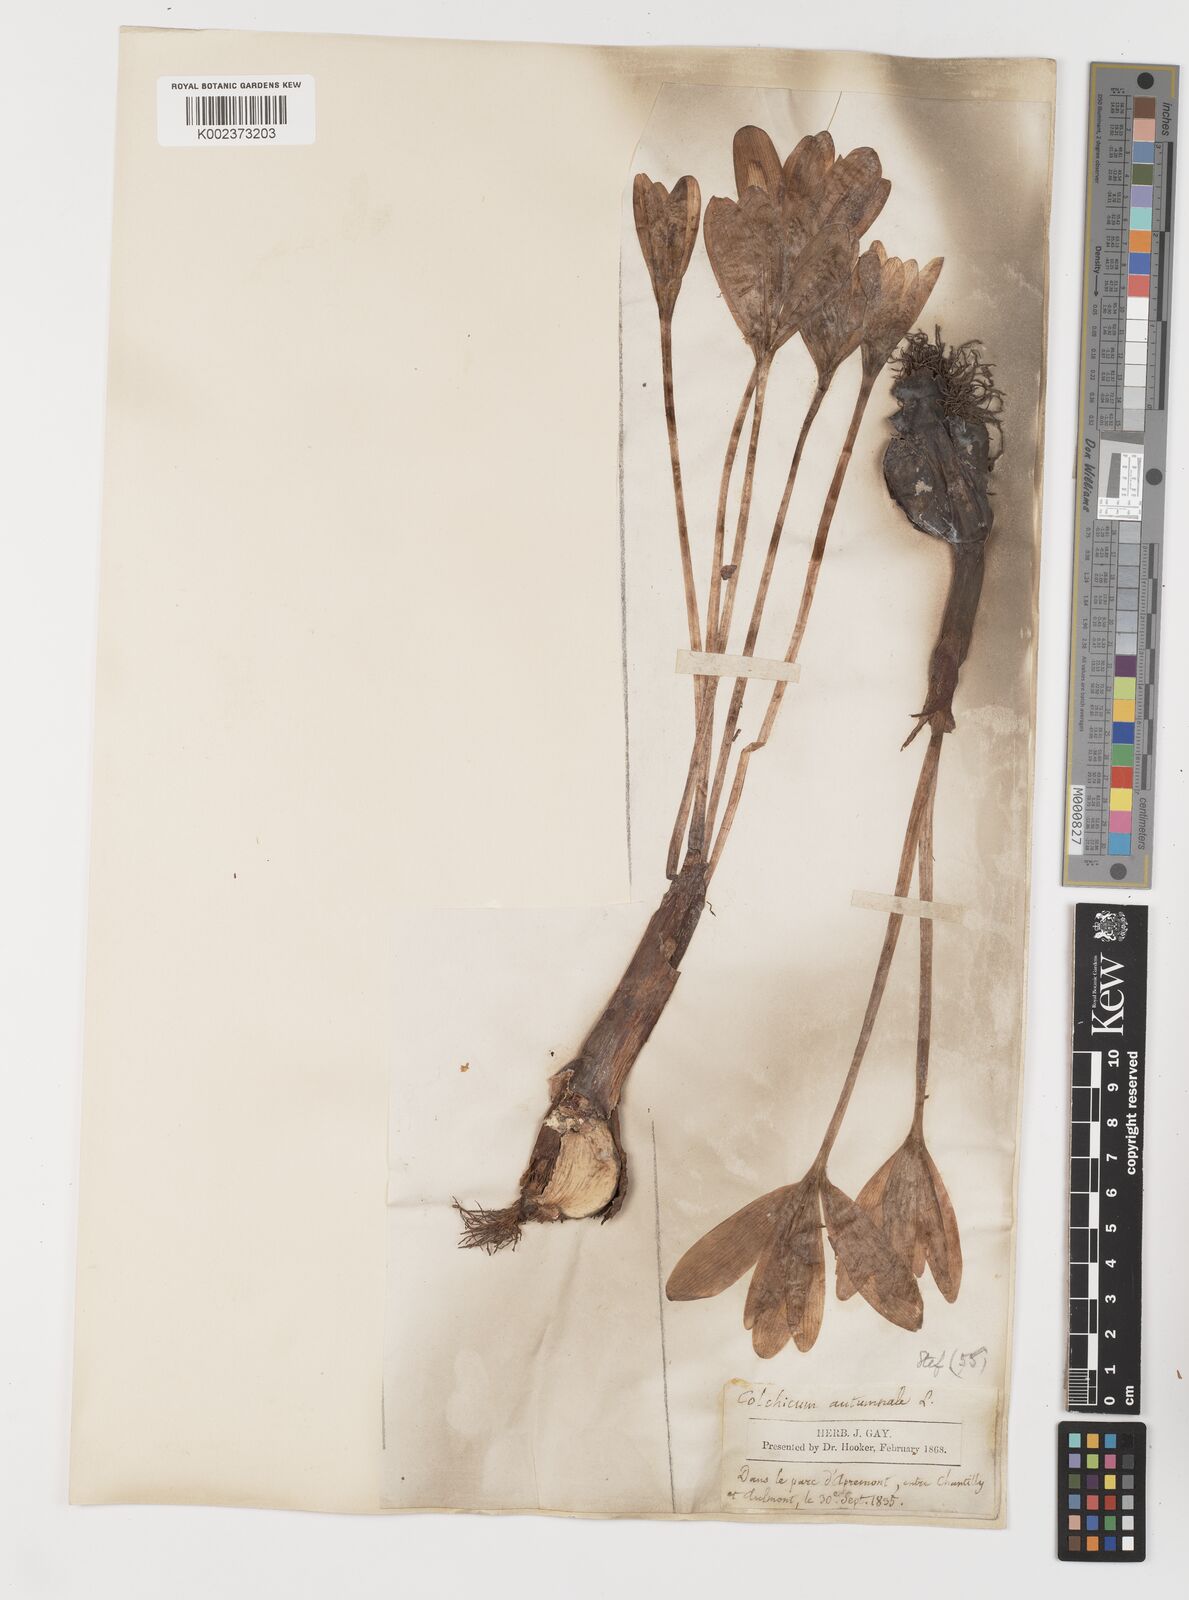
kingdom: Plantae
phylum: Tracheophyta
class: Liliopsida
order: Liliales
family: Colchicaceae
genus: Colchicum
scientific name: Colchicum autumnale
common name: Autumn crocus
